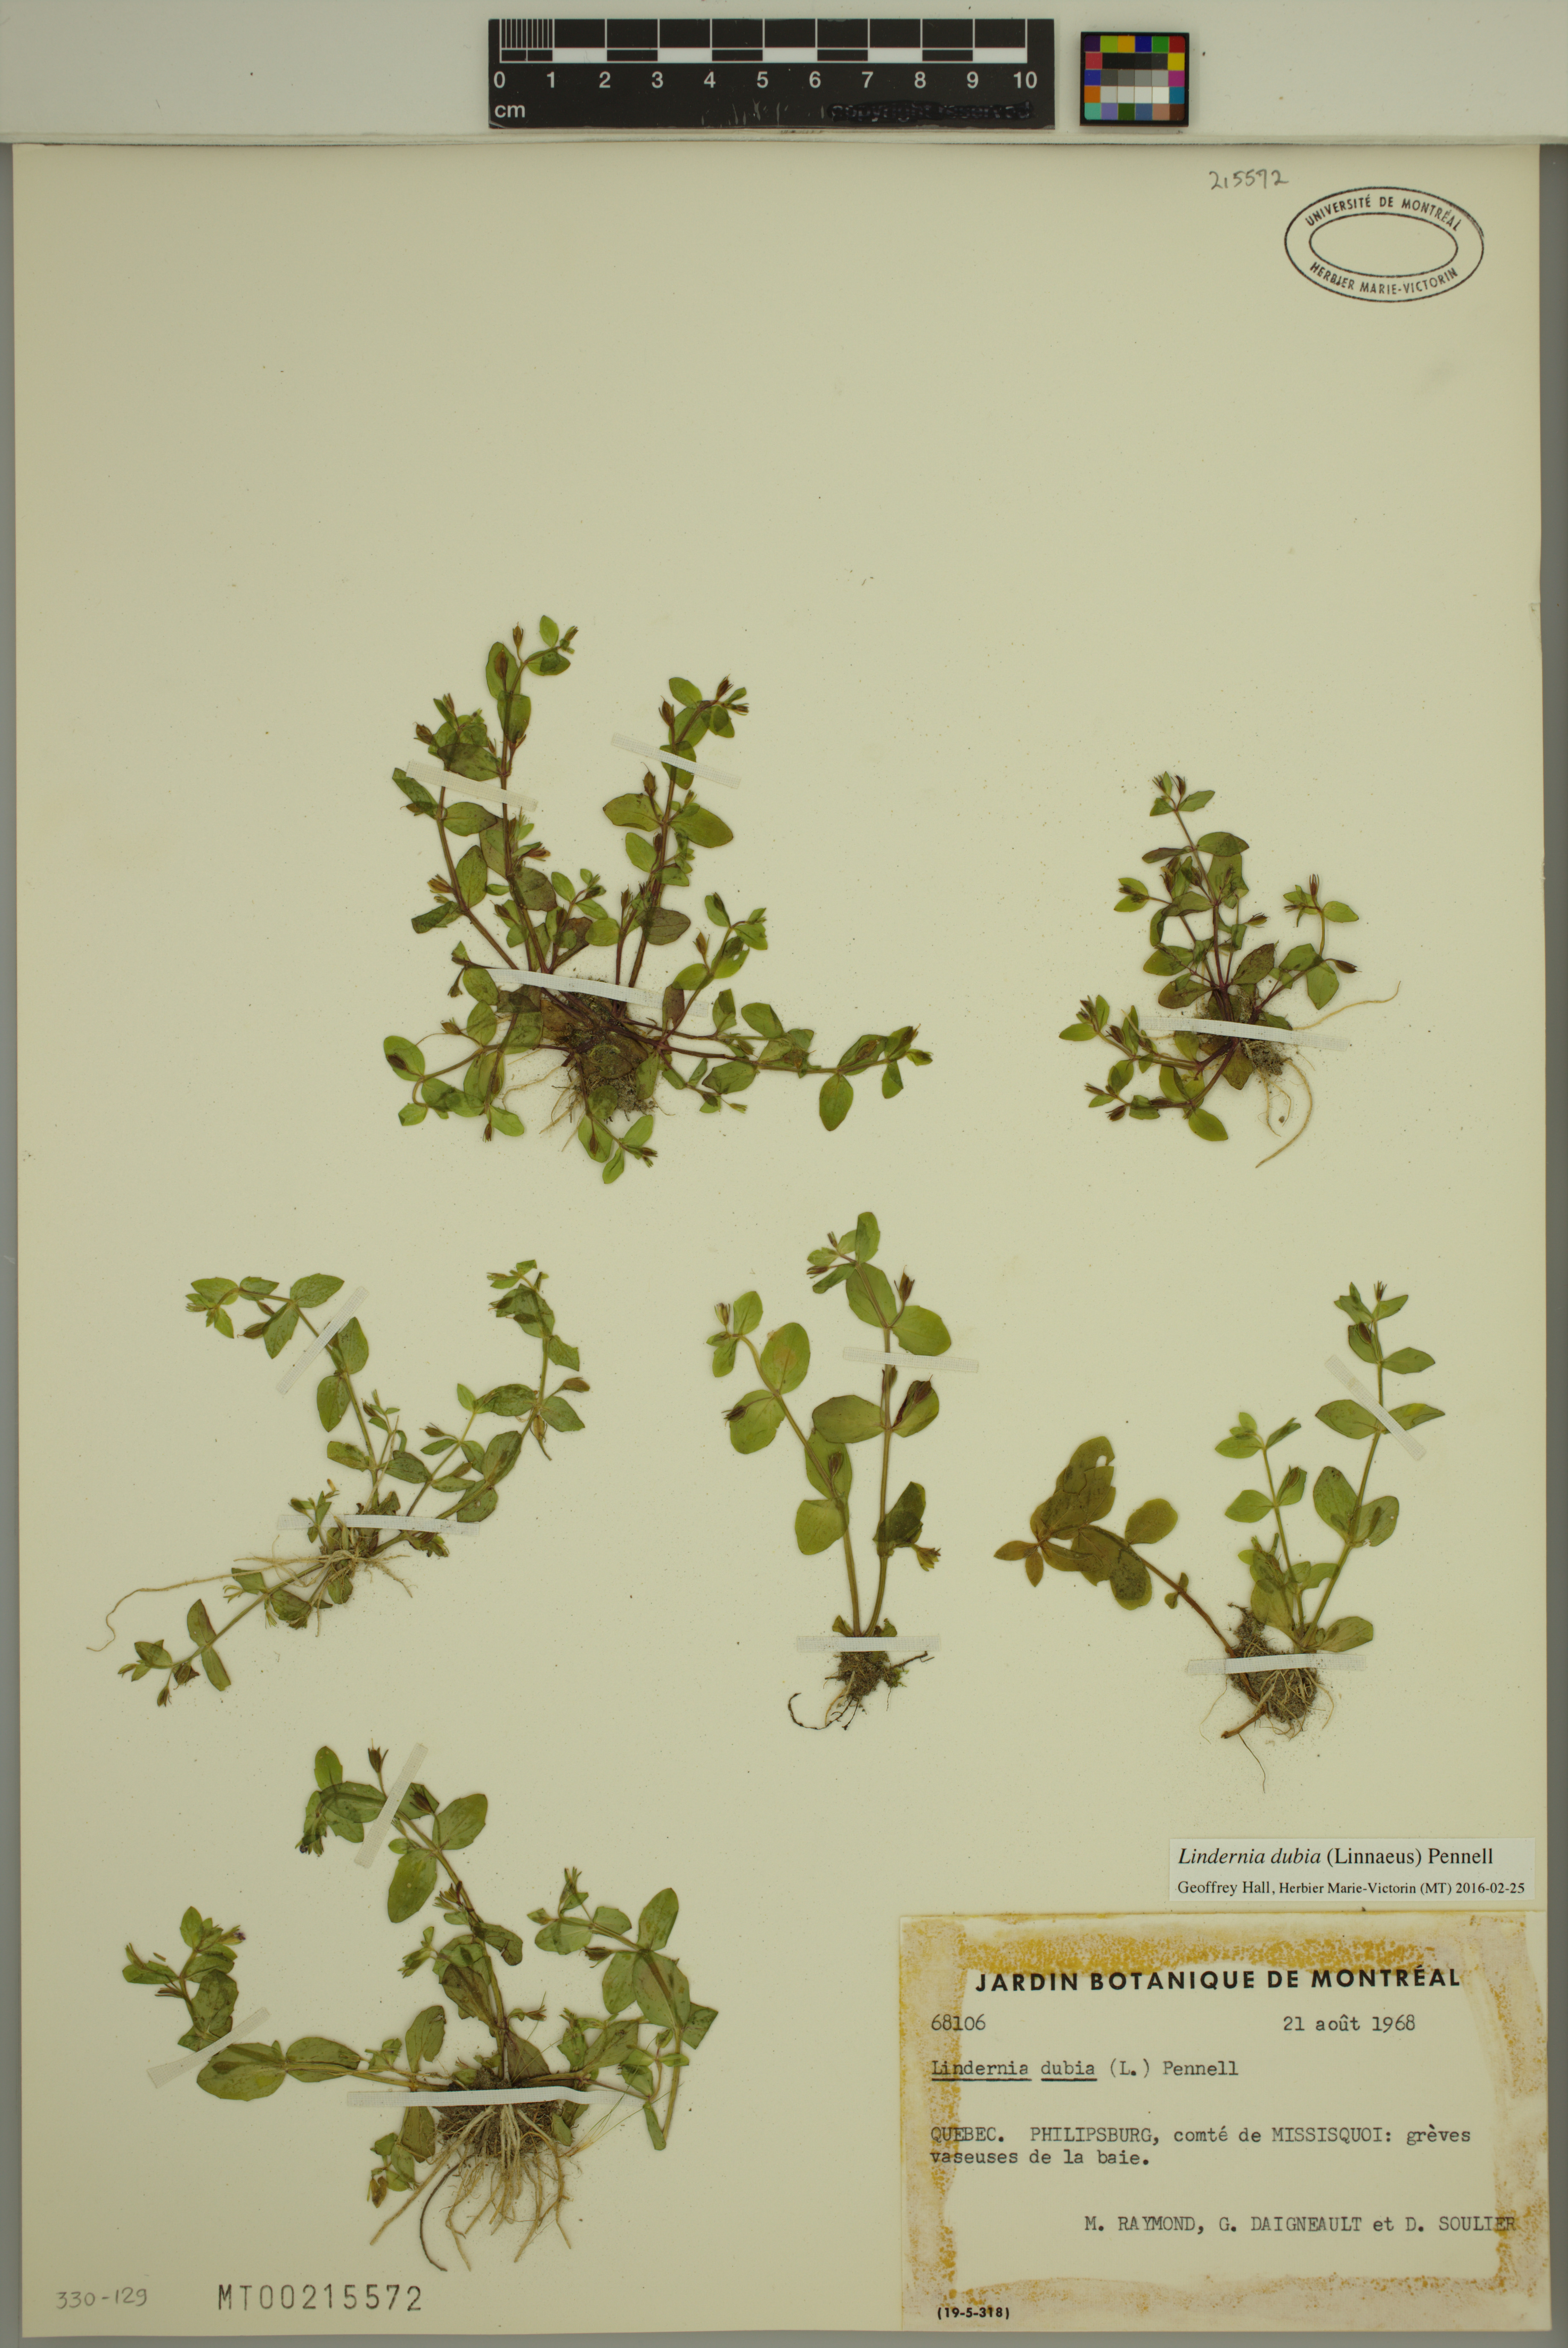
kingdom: Plantae
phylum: Tracheophyta
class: Magnoliopsida
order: Lamiales
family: Linderniaceae
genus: Lindernia
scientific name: Lindernia dubia
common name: Annual false pimpernel
